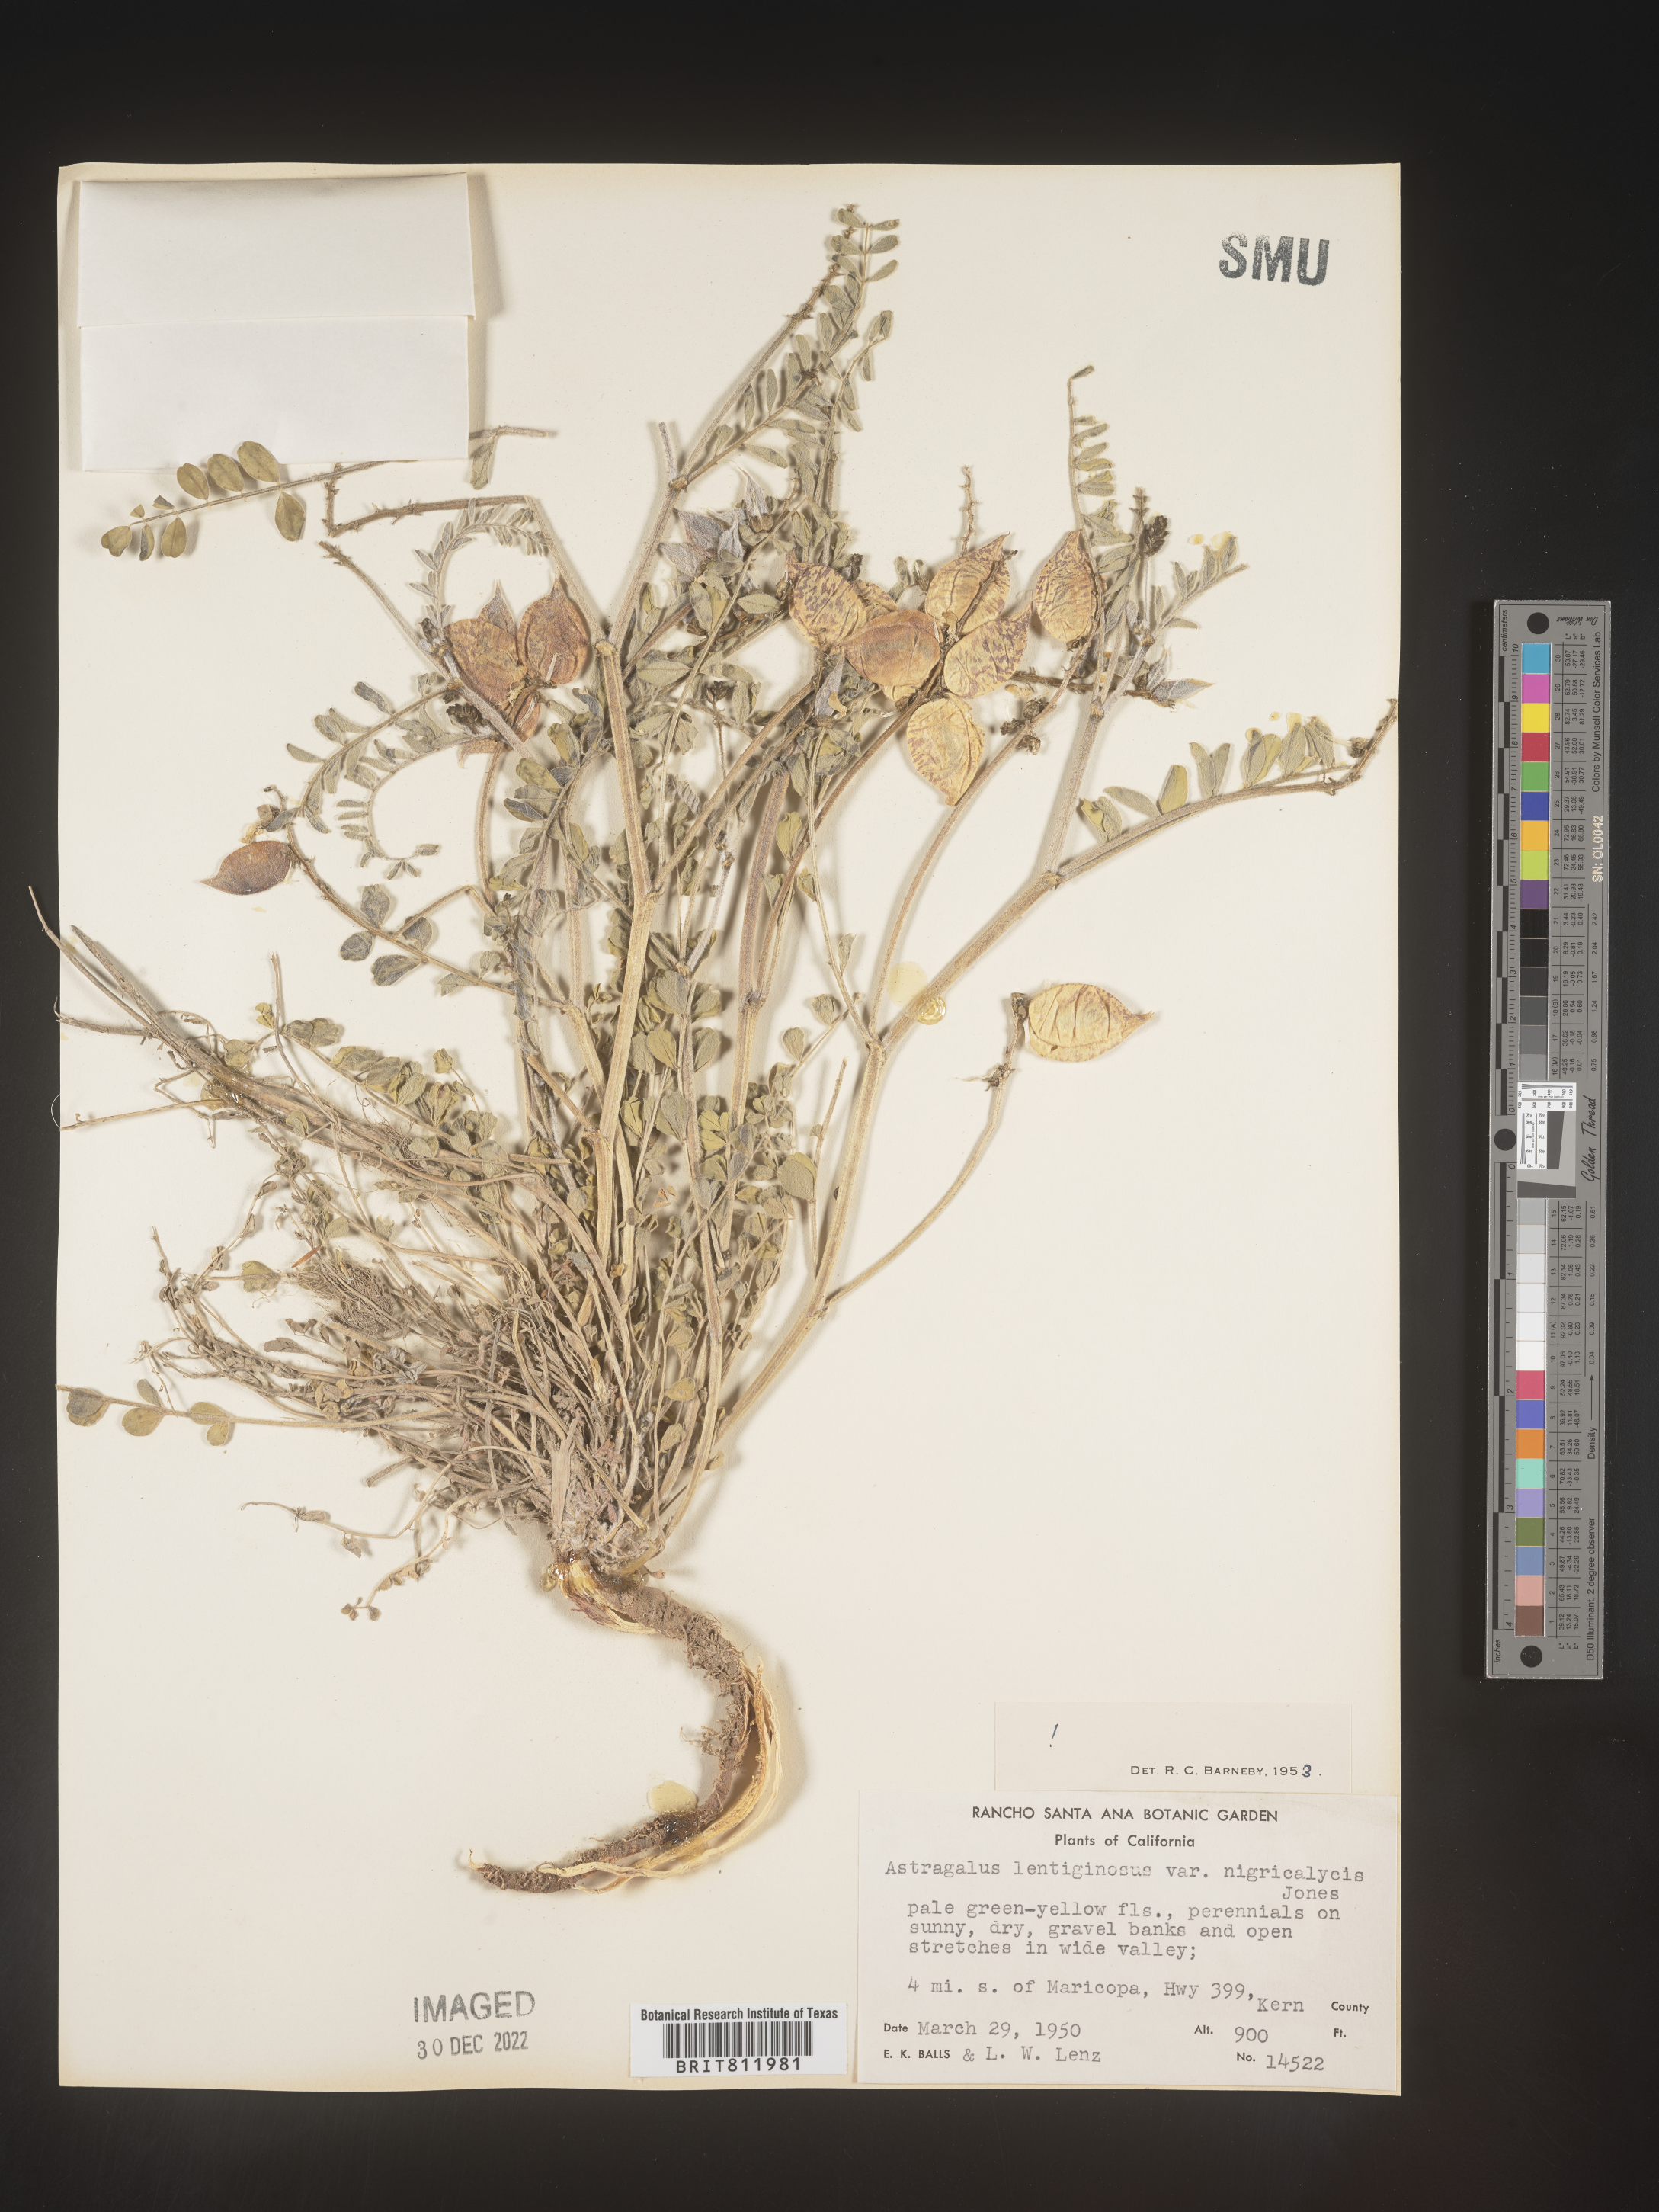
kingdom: Plantae
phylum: Tracheophyta
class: Magnoliopsida
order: Fabales
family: Fabaceae
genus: Astragalus
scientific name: Astragalus lentiginosus
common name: Freckled milkvetch
